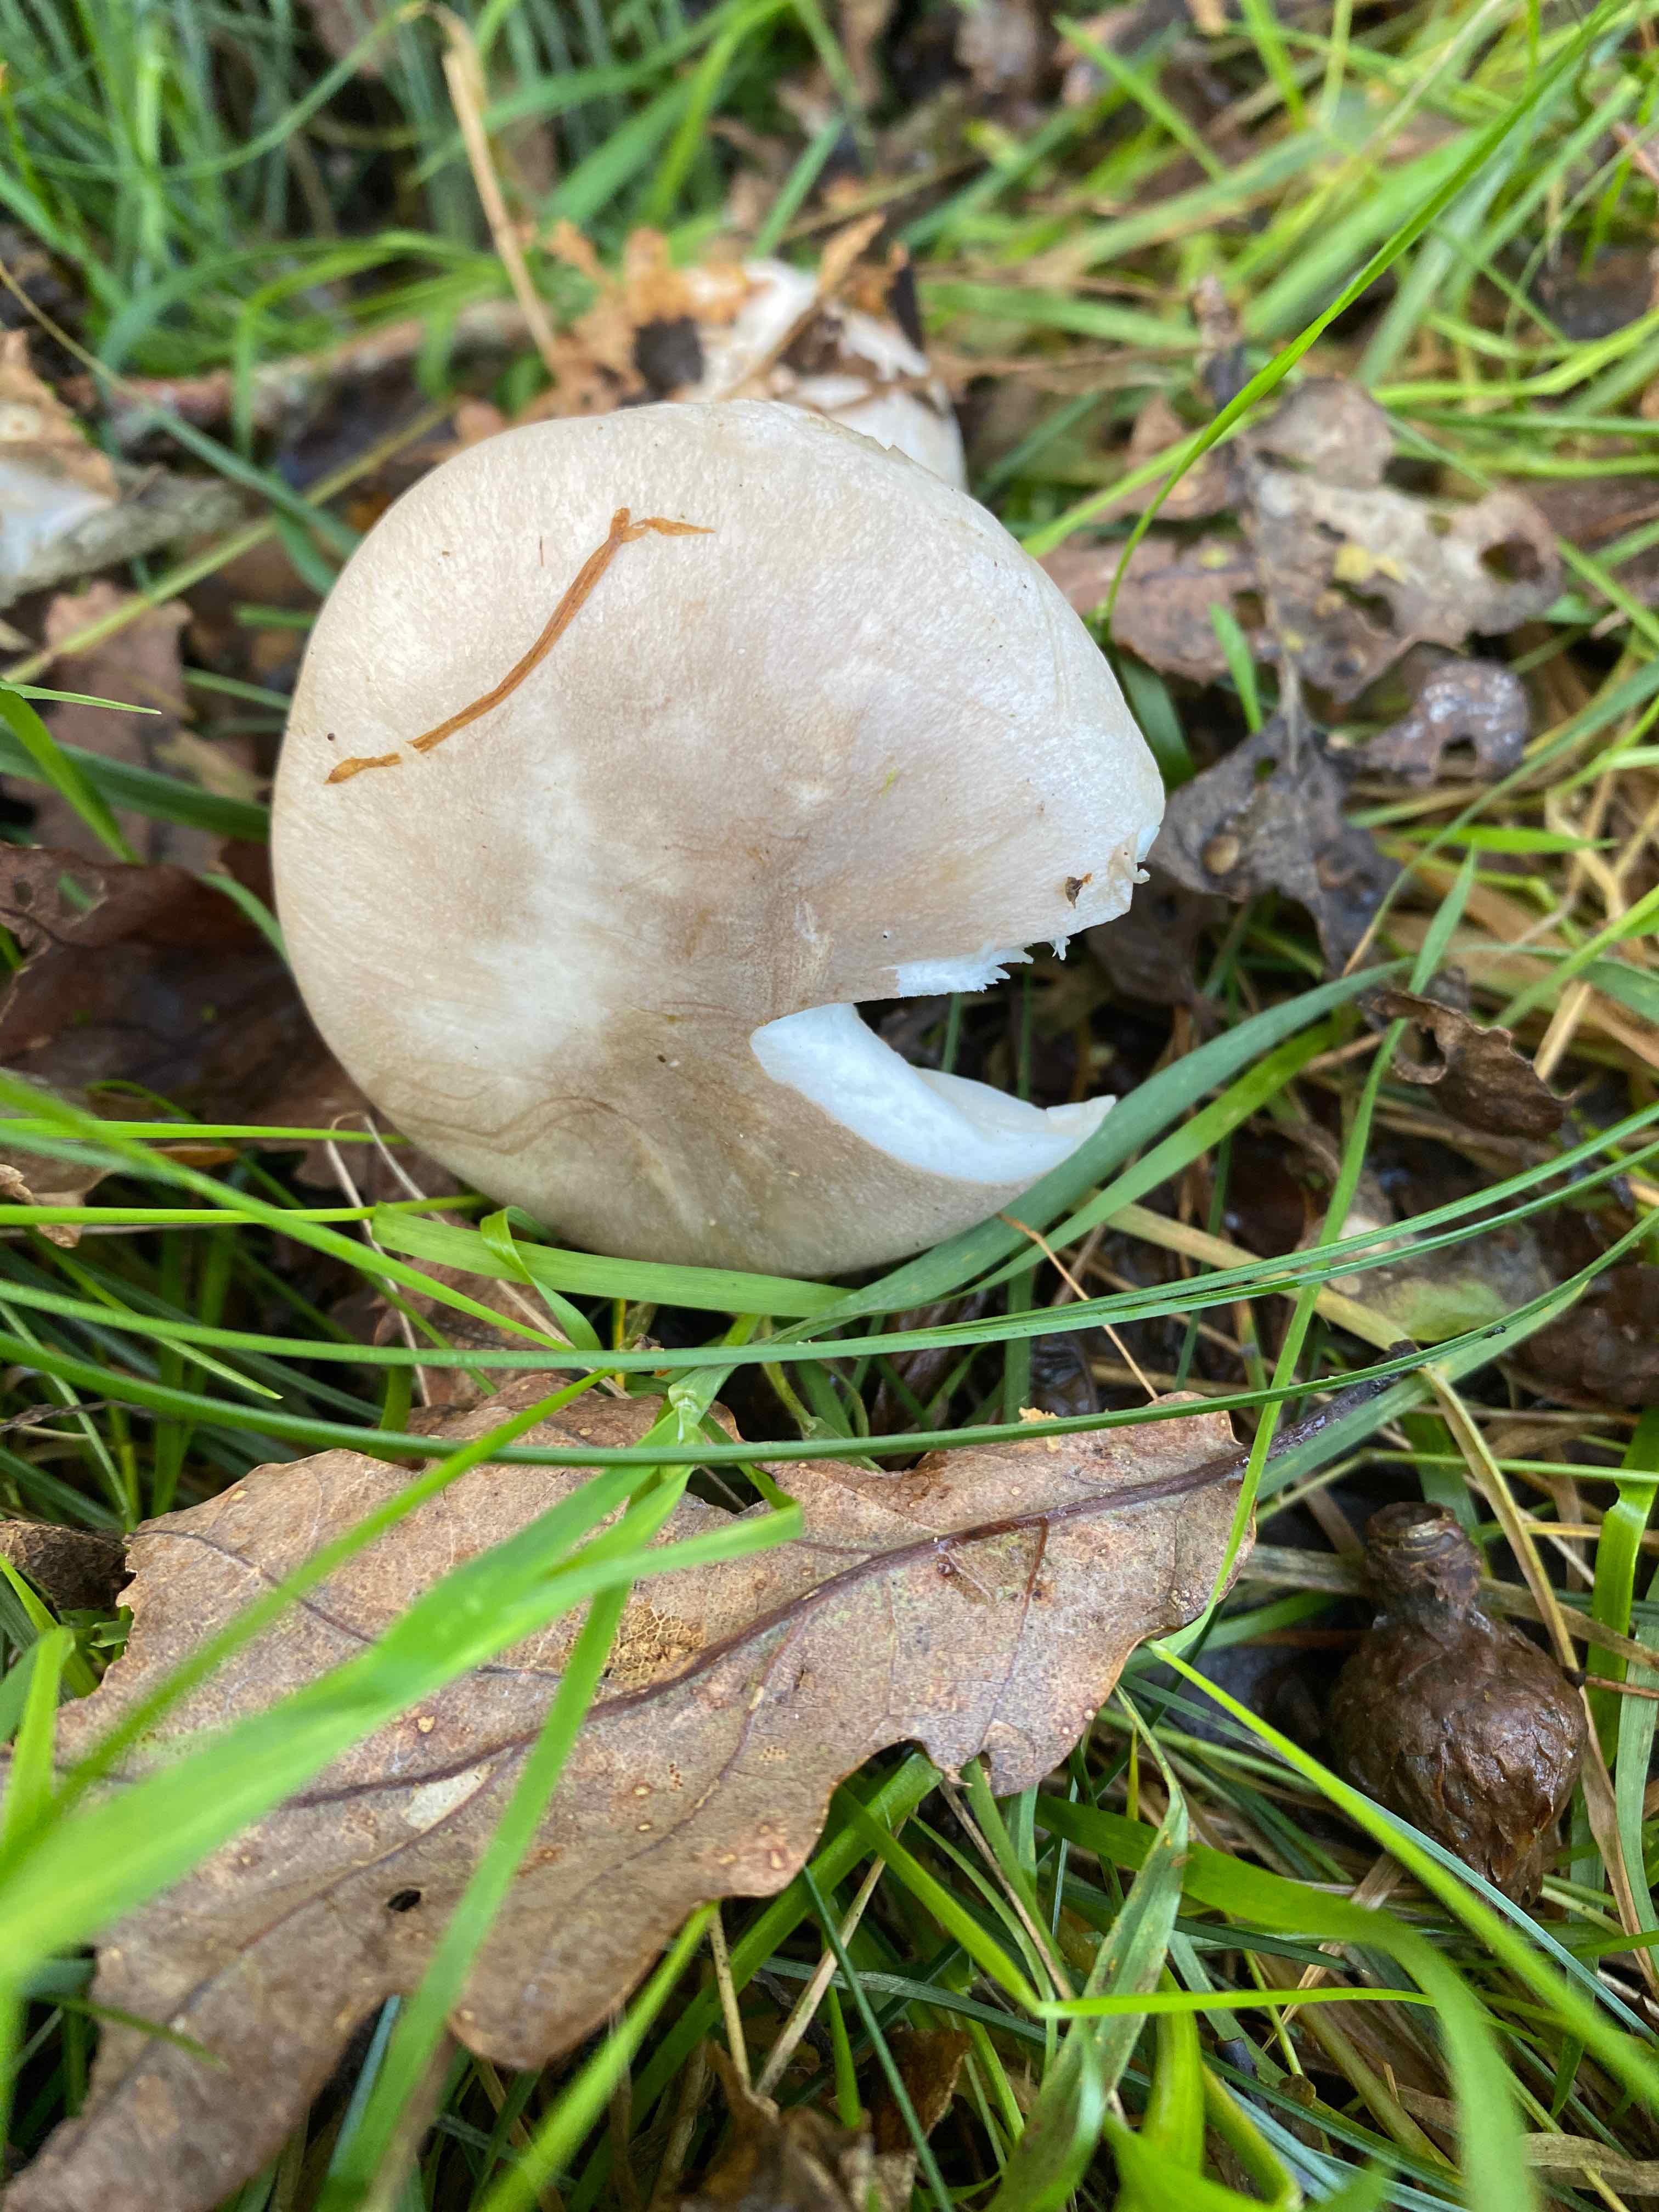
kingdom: Fungi
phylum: Basidiomycota
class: Agaricomycetes
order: Agaricales
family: Tricholomataceae
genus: Clitocybe
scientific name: Clitocybe nebularis
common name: tåge-tragthat
